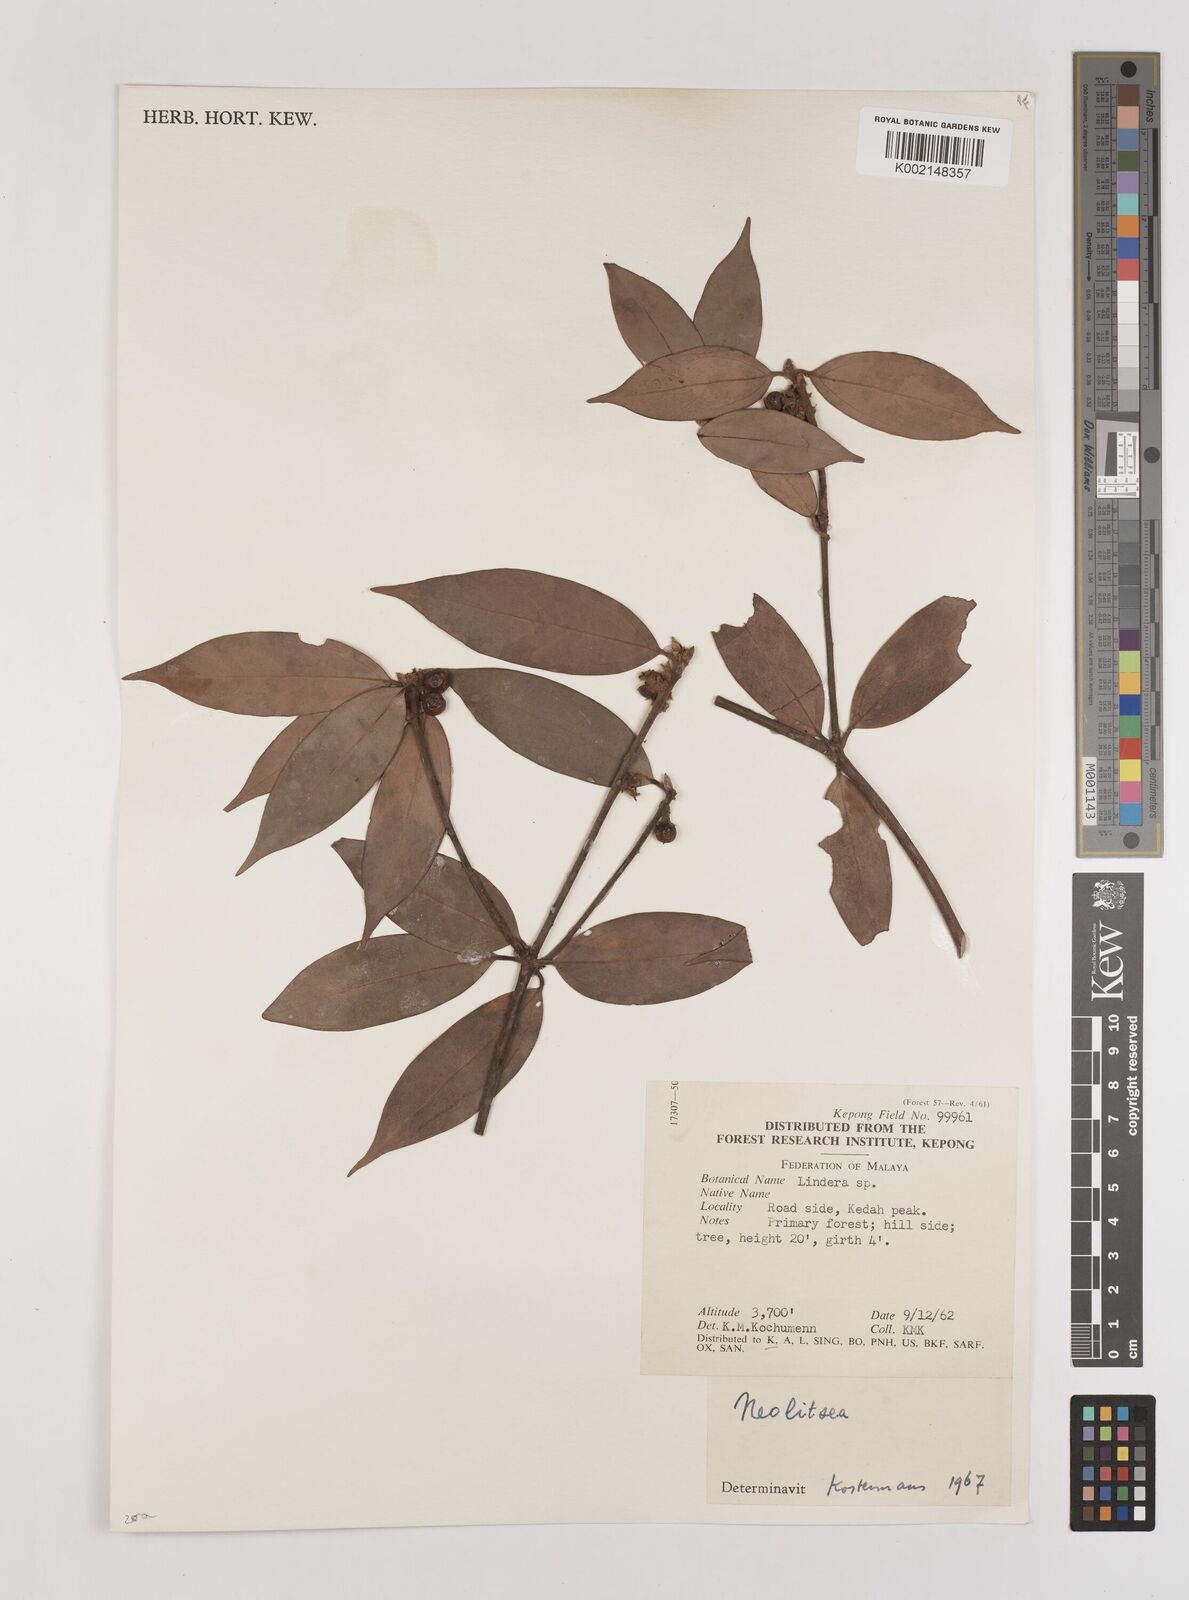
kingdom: Plantae
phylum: Tracheophyta
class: Magnoliopsida
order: Laurales
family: Lauraceae
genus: Neolitsea
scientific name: Neolitsea
